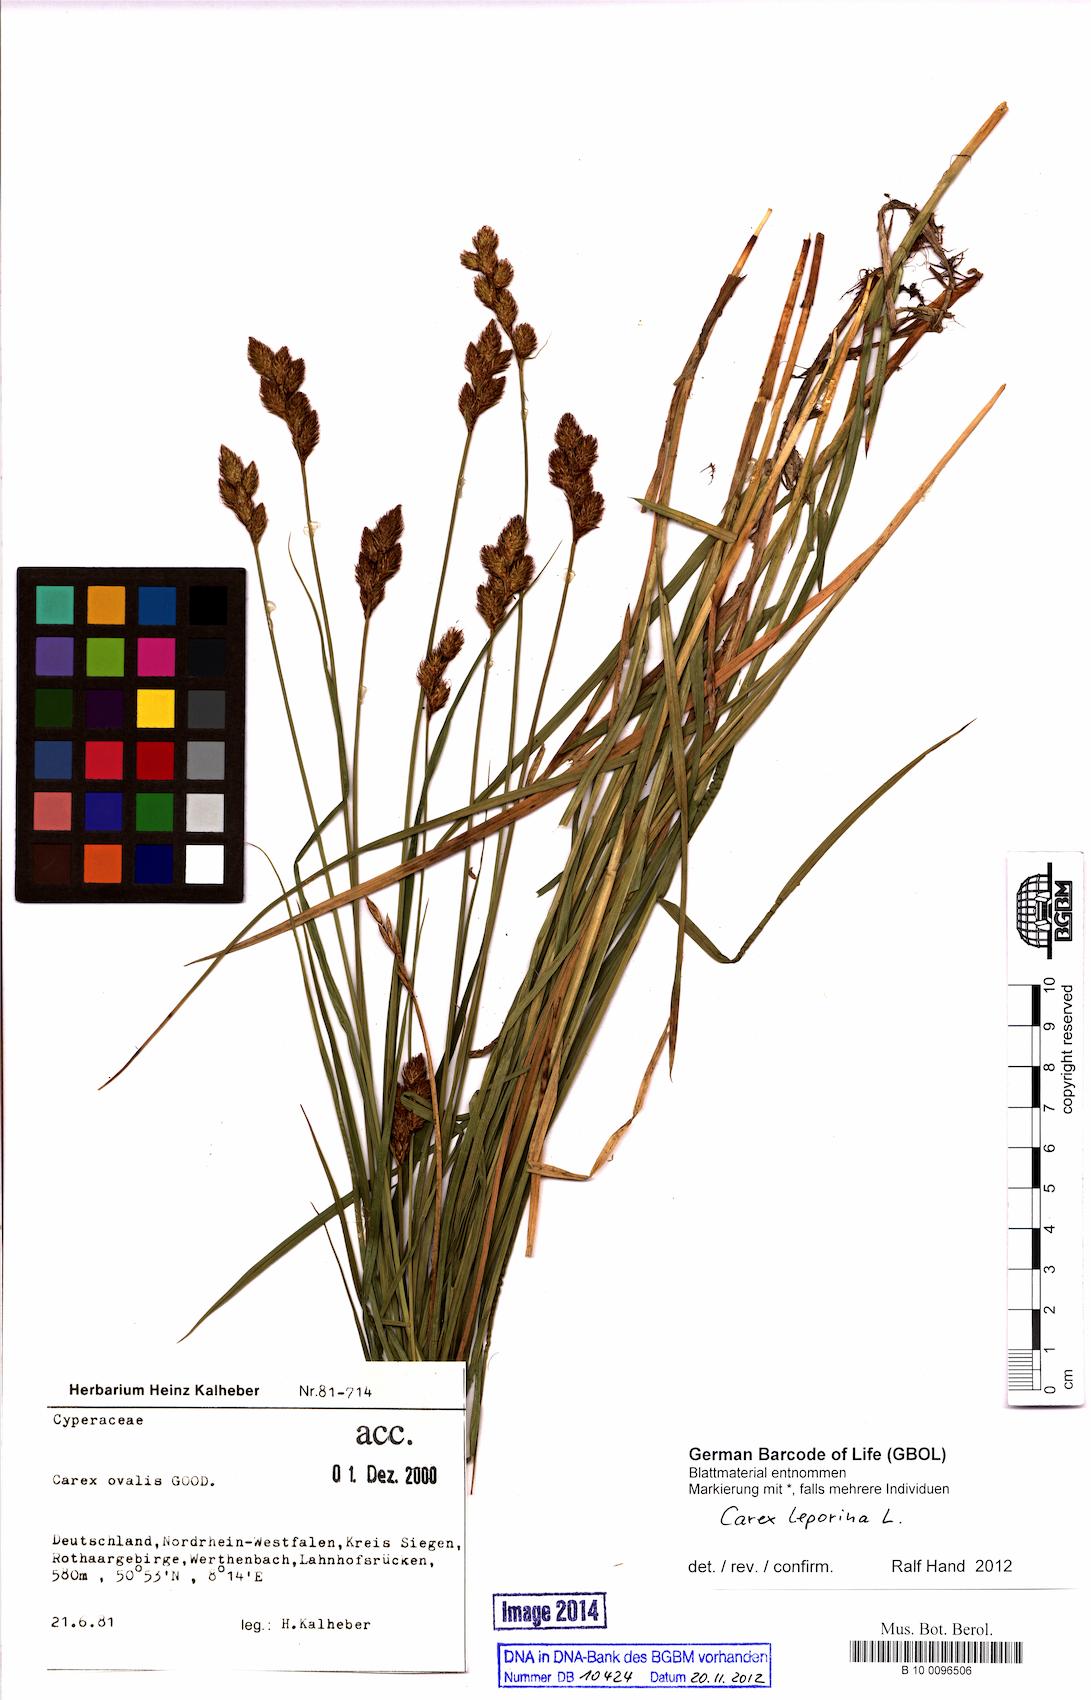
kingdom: Plantae
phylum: Tracheophyta
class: Liliopsida
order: Poales
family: Cyperaceae
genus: Carex
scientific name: Carex leporina
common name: Oval sedge
